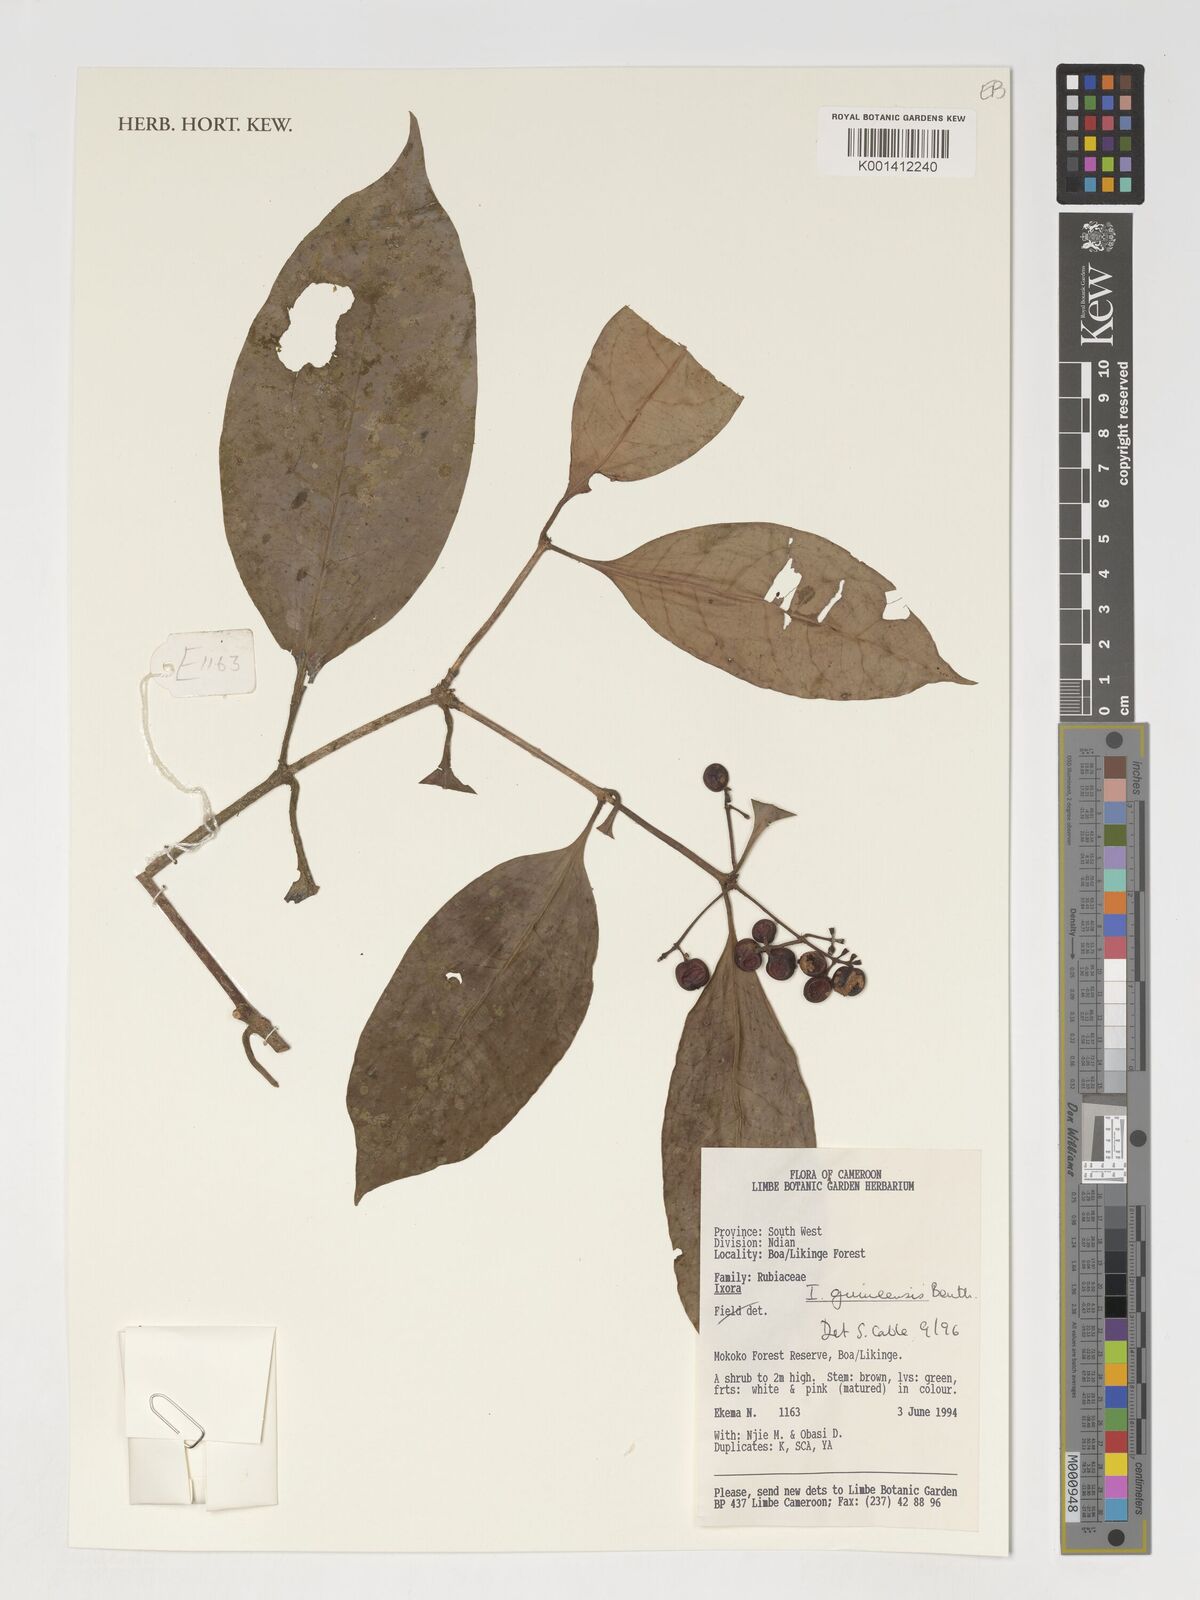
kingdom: Plantae
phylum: Tracheophyta
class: Magnoliopsida
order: Gentianales
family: Rubiaceae
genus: Ixora
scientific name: Ixora guineensis
